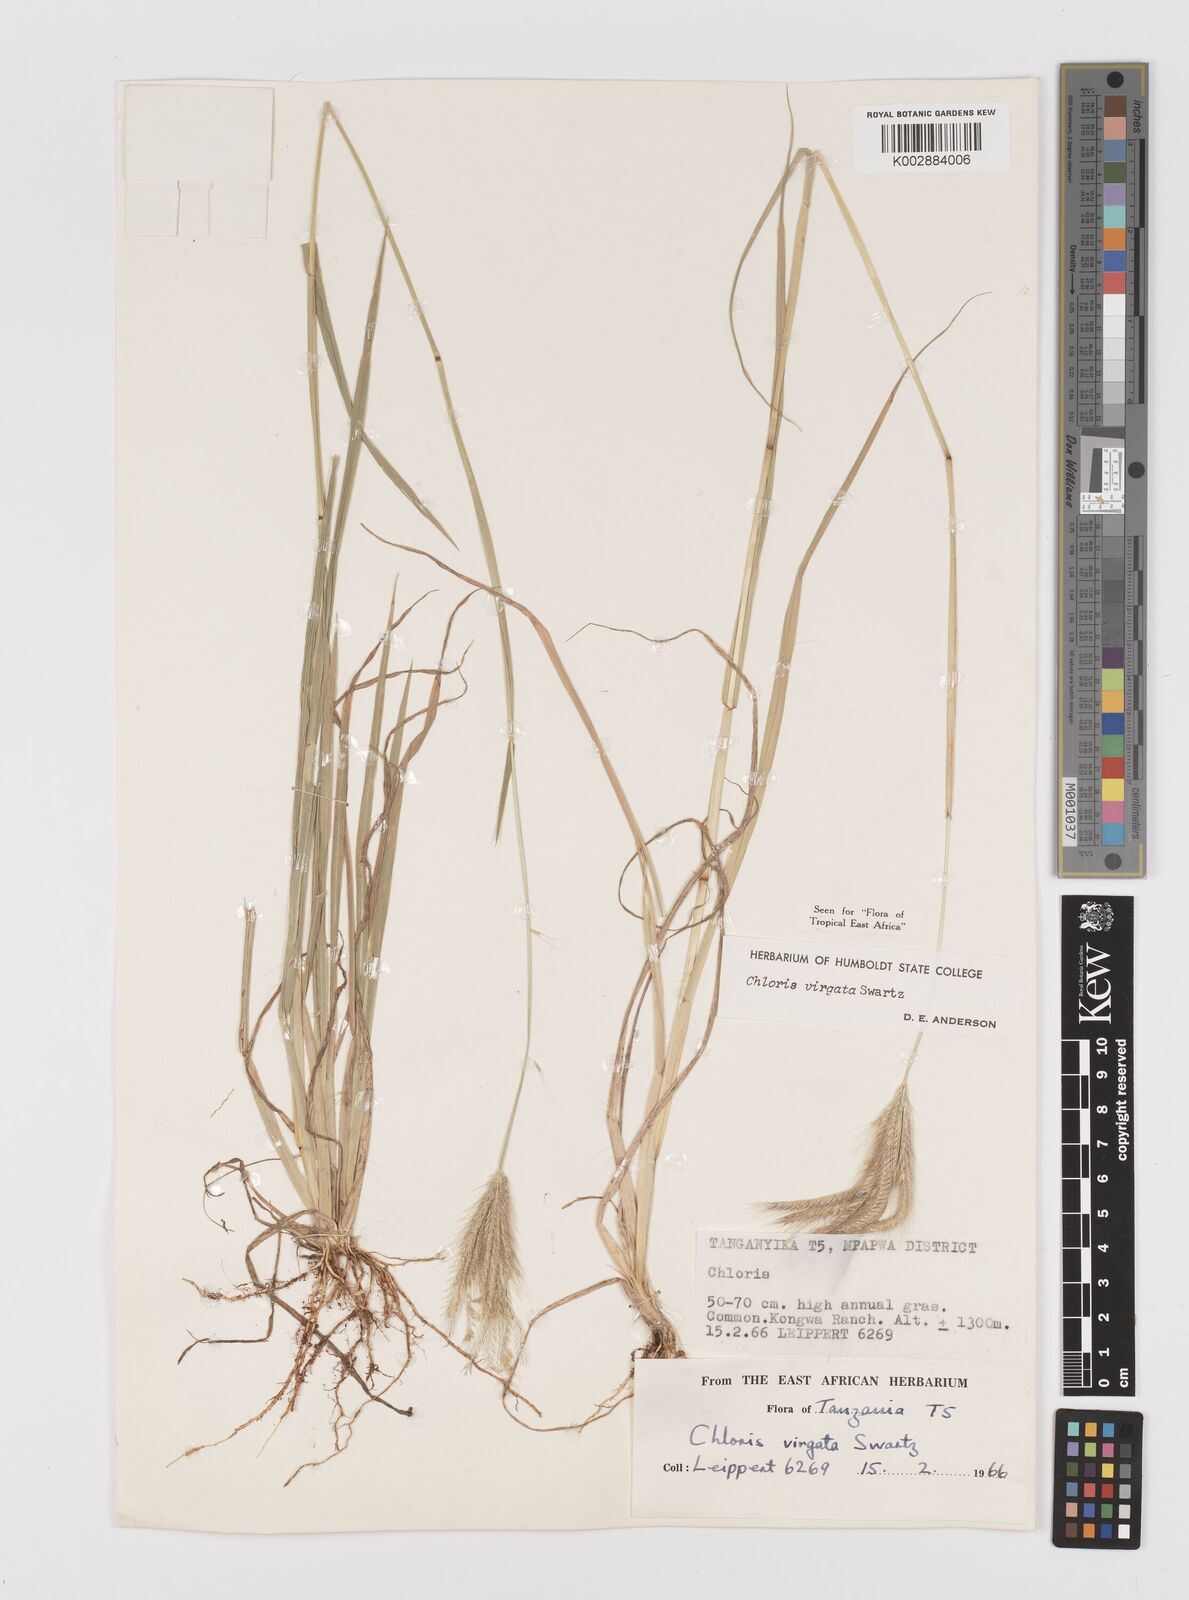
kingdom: Plantae
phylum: Tracheophyta
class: Liliopsida
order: Poales
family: Poaceae
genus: Chloris
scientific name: Chloris virgata
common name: Feathery rhodes-grass
